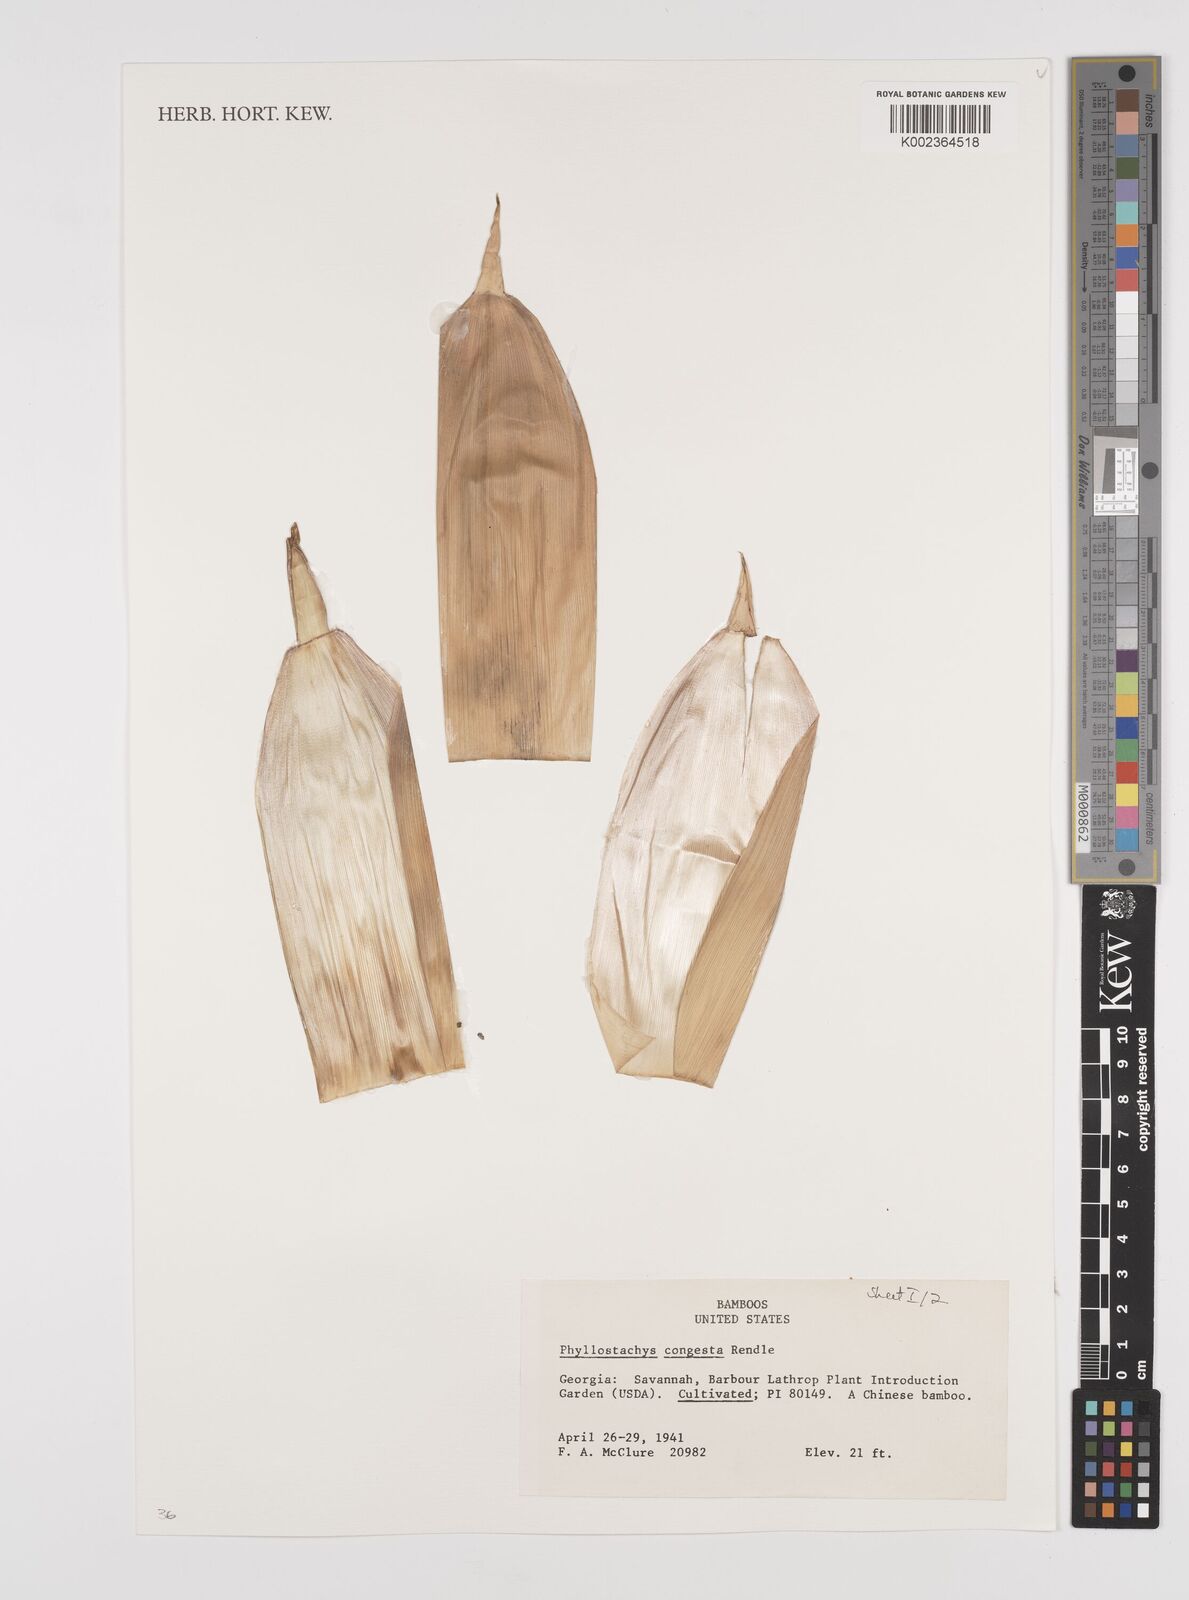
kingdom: Plantae
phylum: Tracheophyta
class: Liliopsida
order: Poales
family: Poaceae
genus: Phyllostachys
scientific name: Phyllostachys heteroclada
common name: Fishscale bamboo
